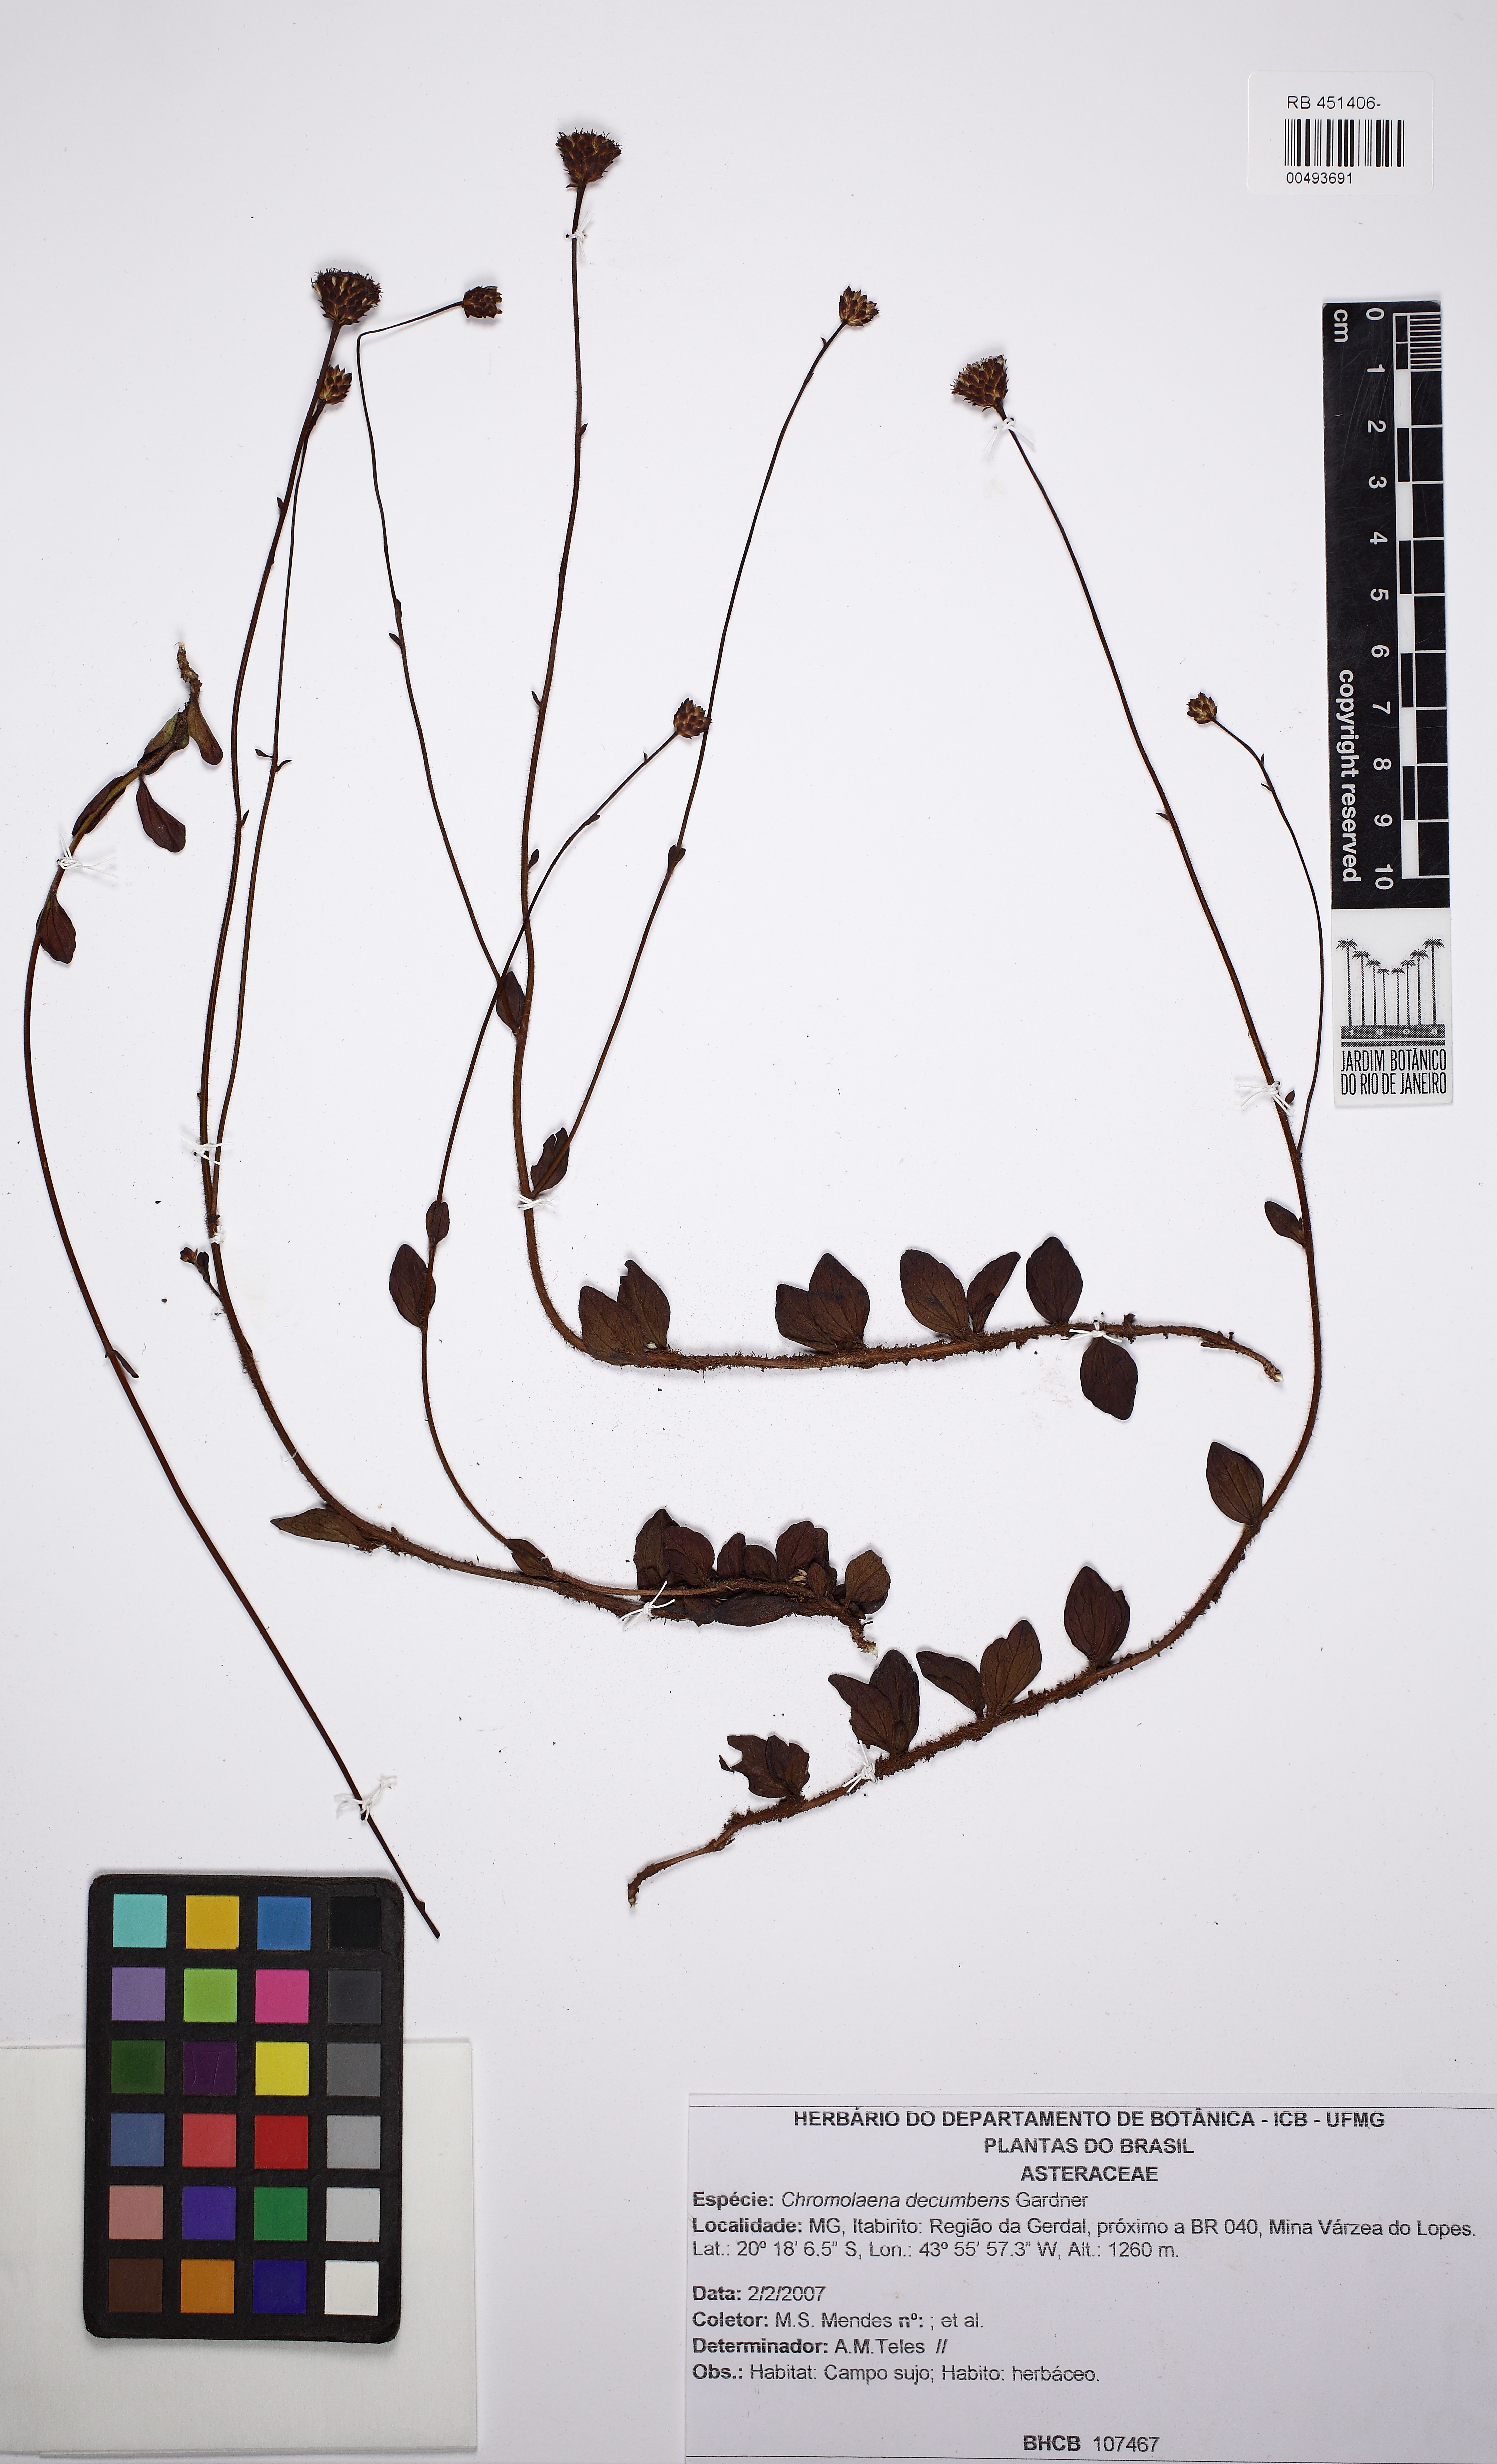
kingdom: Plantae
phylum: Tracheophyta
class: Magnoliopsida
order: Asterales
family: Asteraceae
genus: Praxelis
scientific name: Praxelis decumbens
